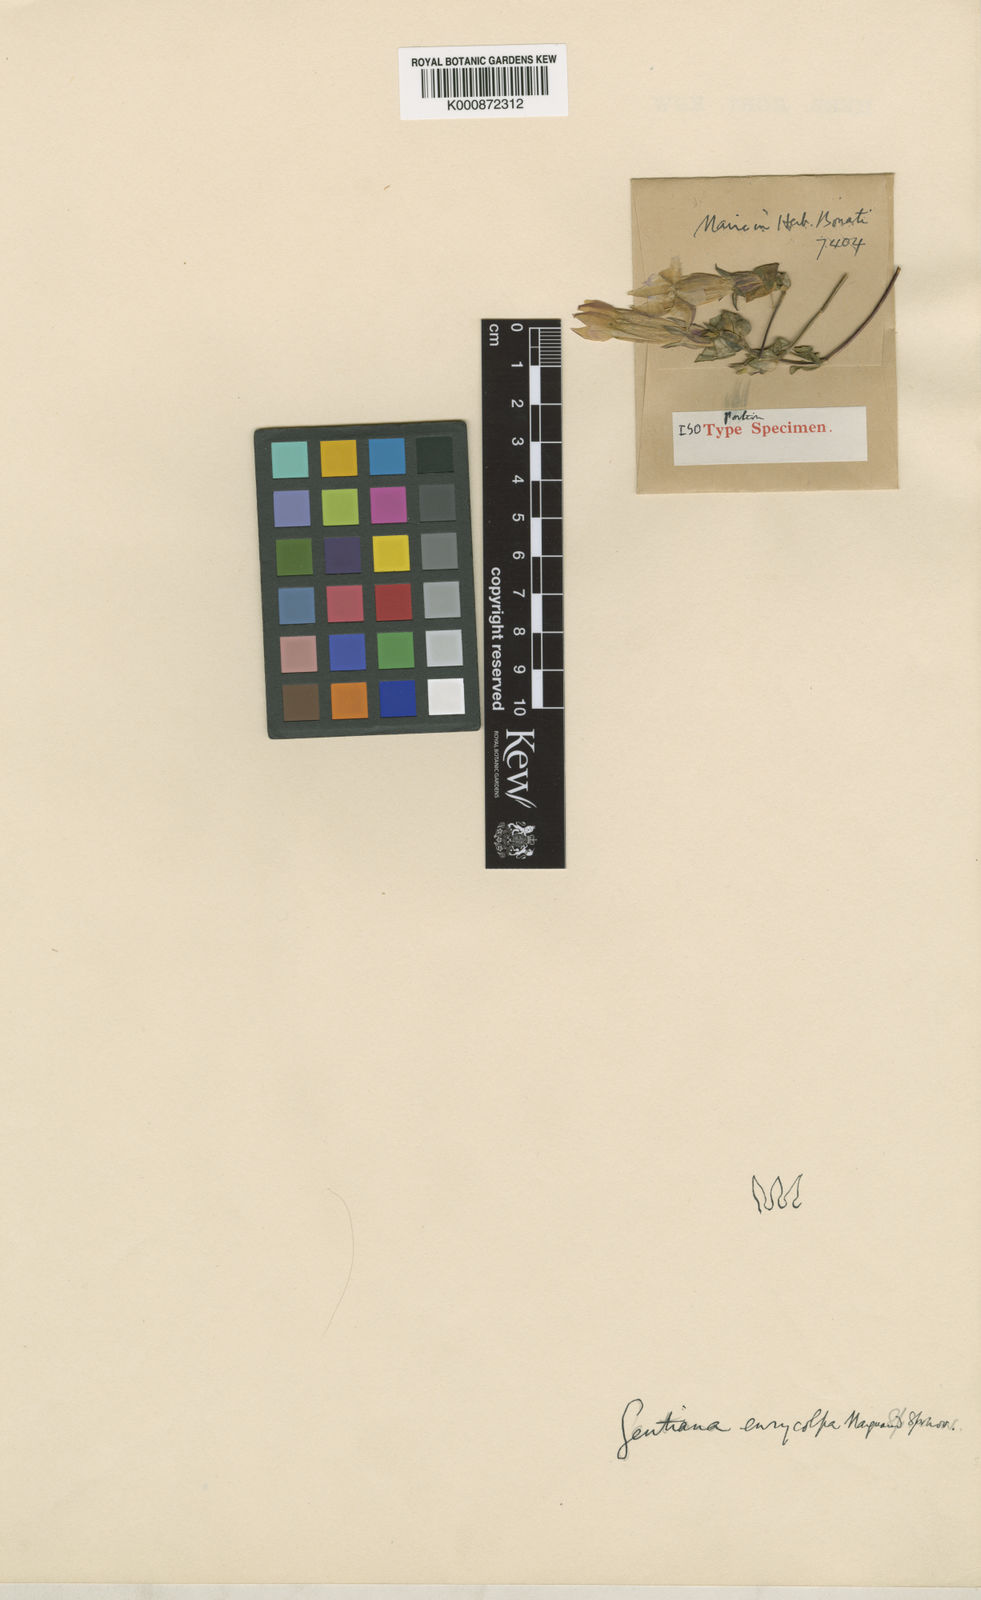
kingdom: Plantae
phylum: Tracheophyta
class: Magnoliopsida
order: Gentianales
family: Gentianaceae
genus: Metagentiana
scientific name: Metagentiana
